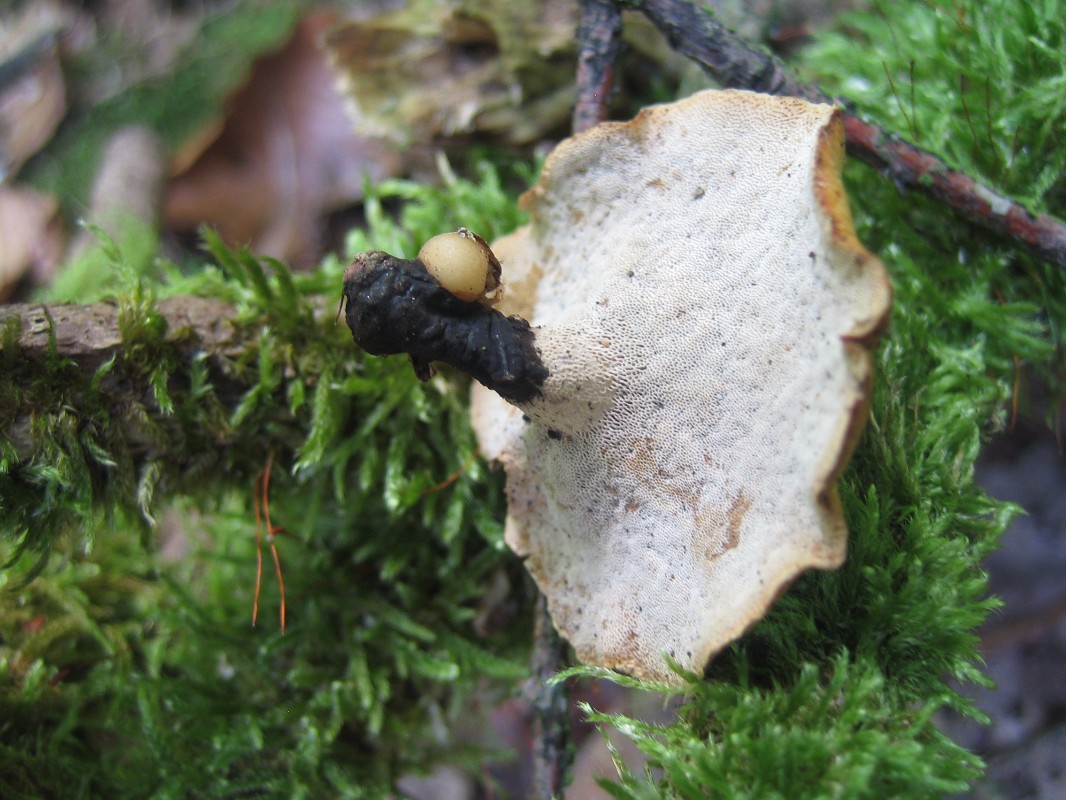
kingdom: Fungi
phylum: Basidiomycota
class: Agaricomycetes
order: Polyporales
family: Polyporaceae
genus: Cerioporus
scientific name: Cerioporus varius
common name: foranderlig stilkporesvamp
